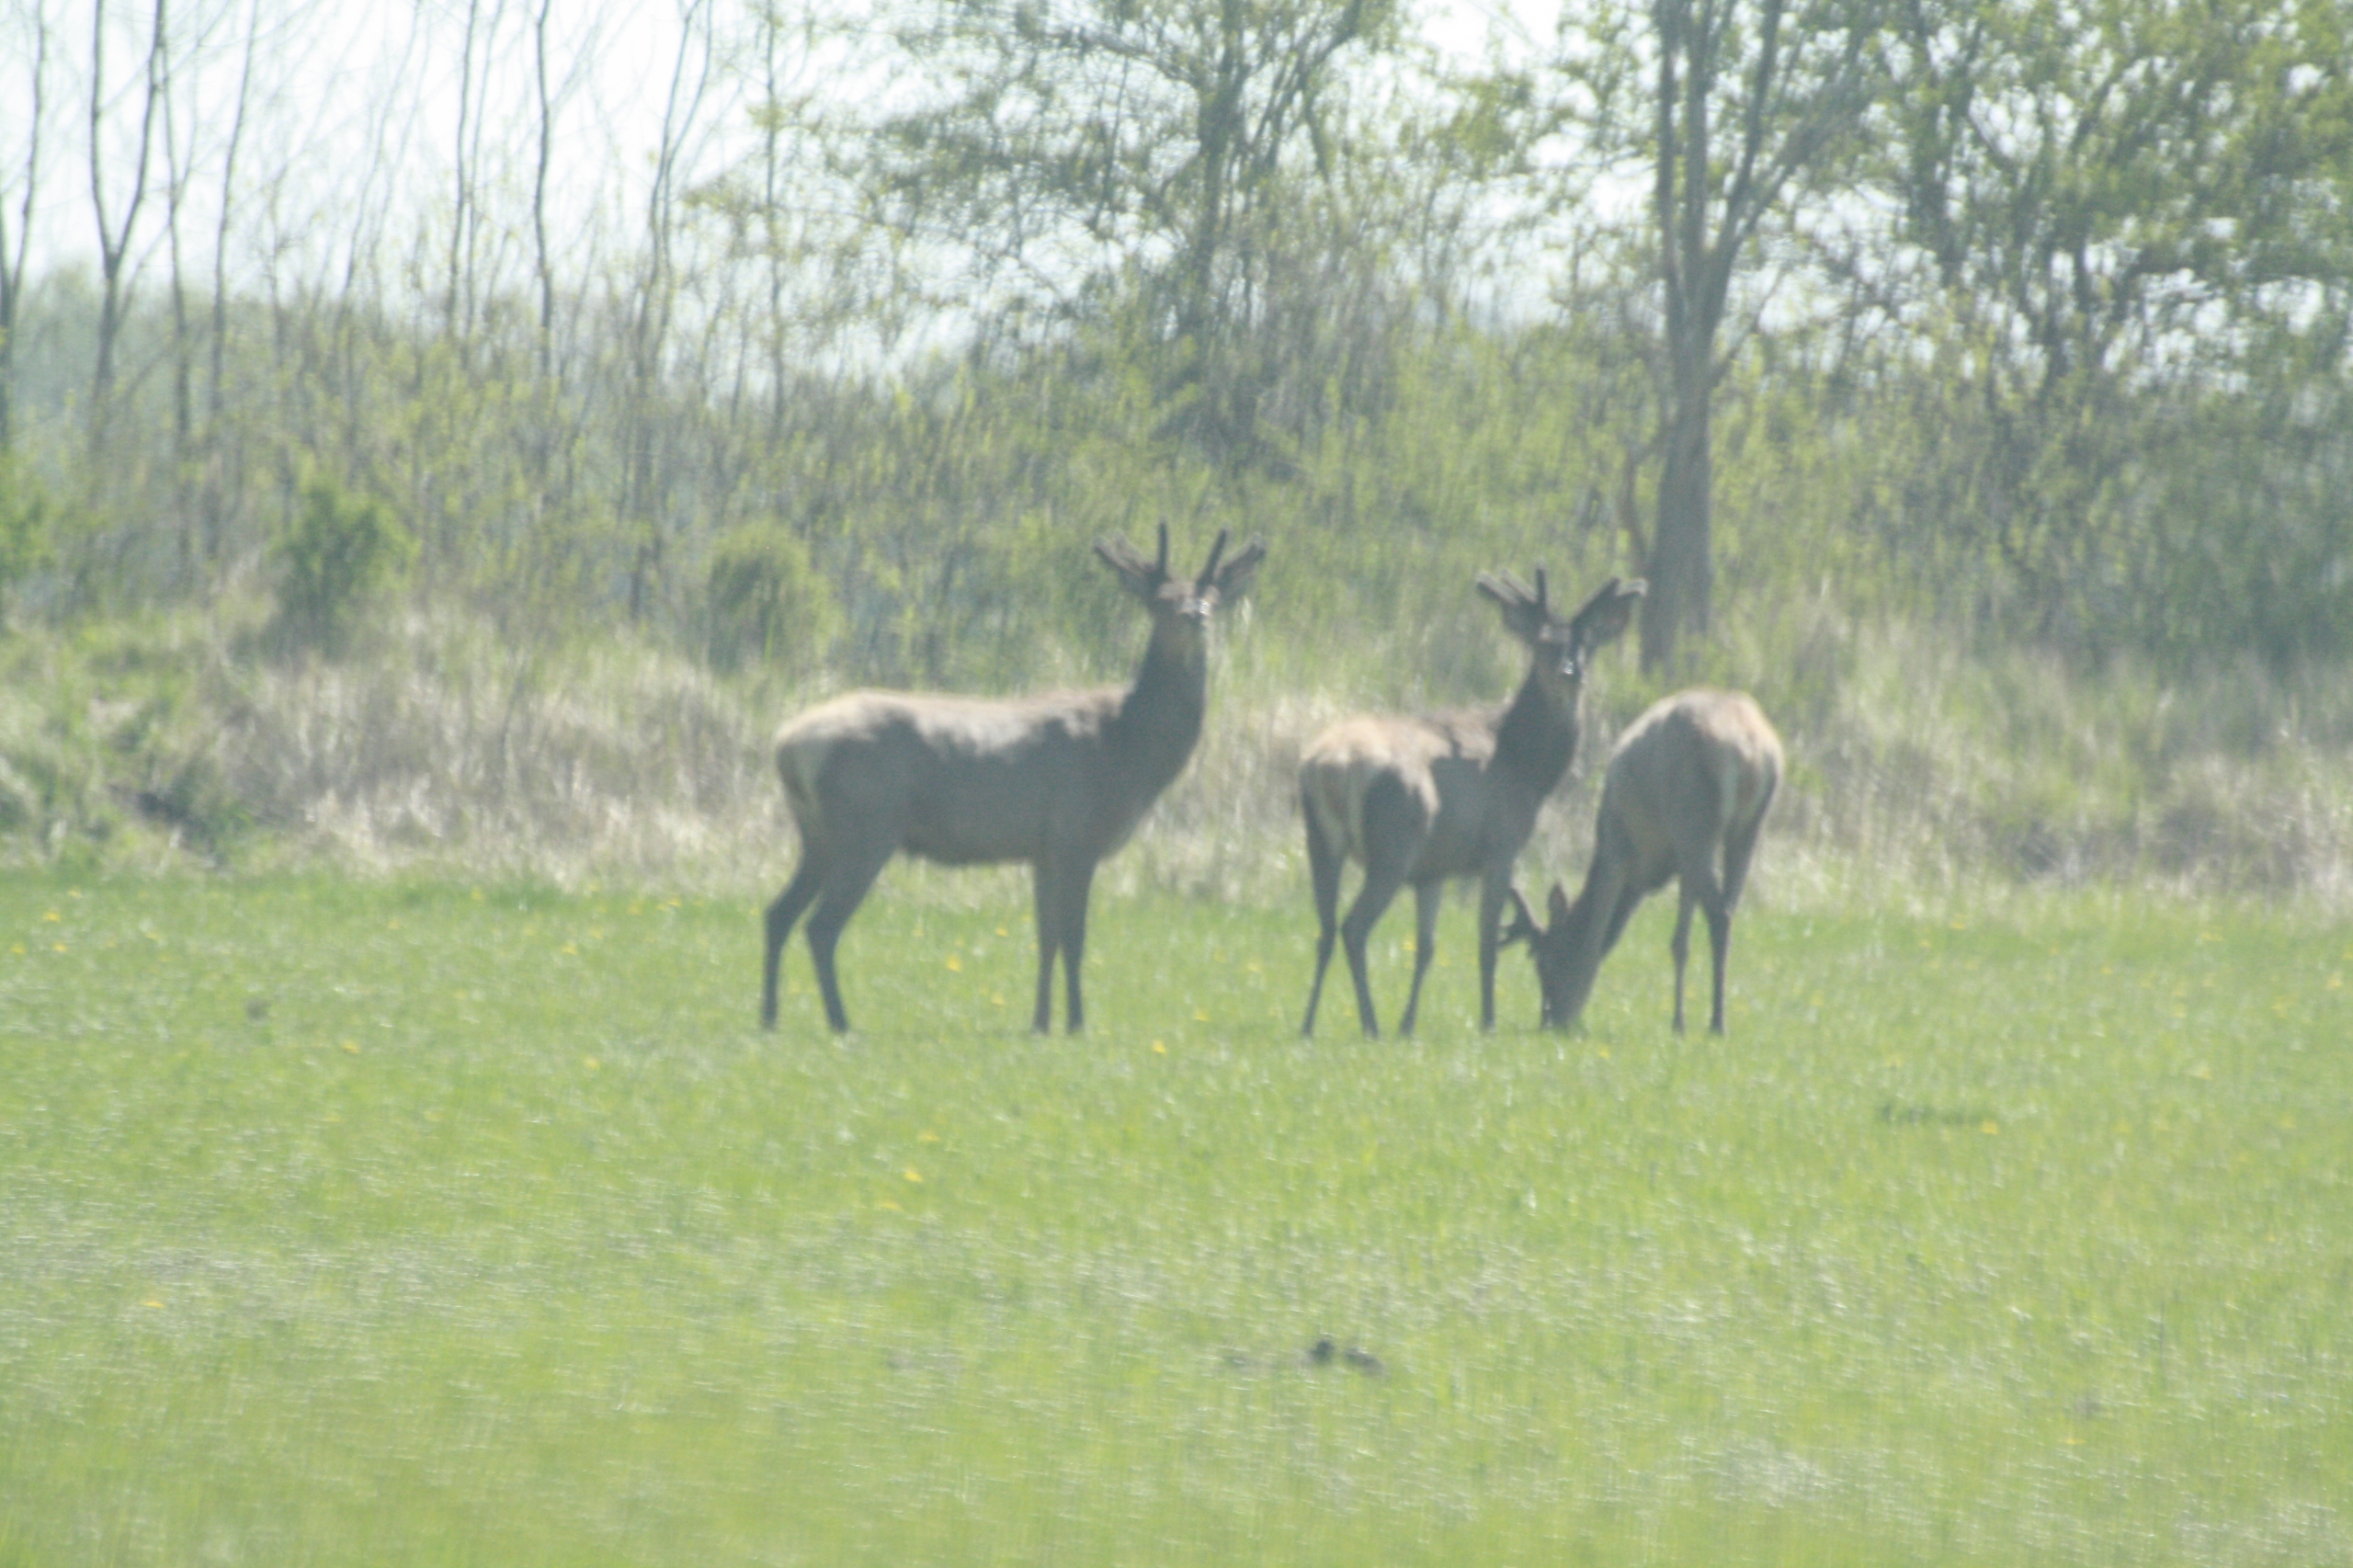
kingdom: Animalia
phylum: Chordata
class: Mammalia
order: Artiodactyla
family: Cervidae
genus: Cervus
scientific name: Cervus elaphus
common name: Krondyr
